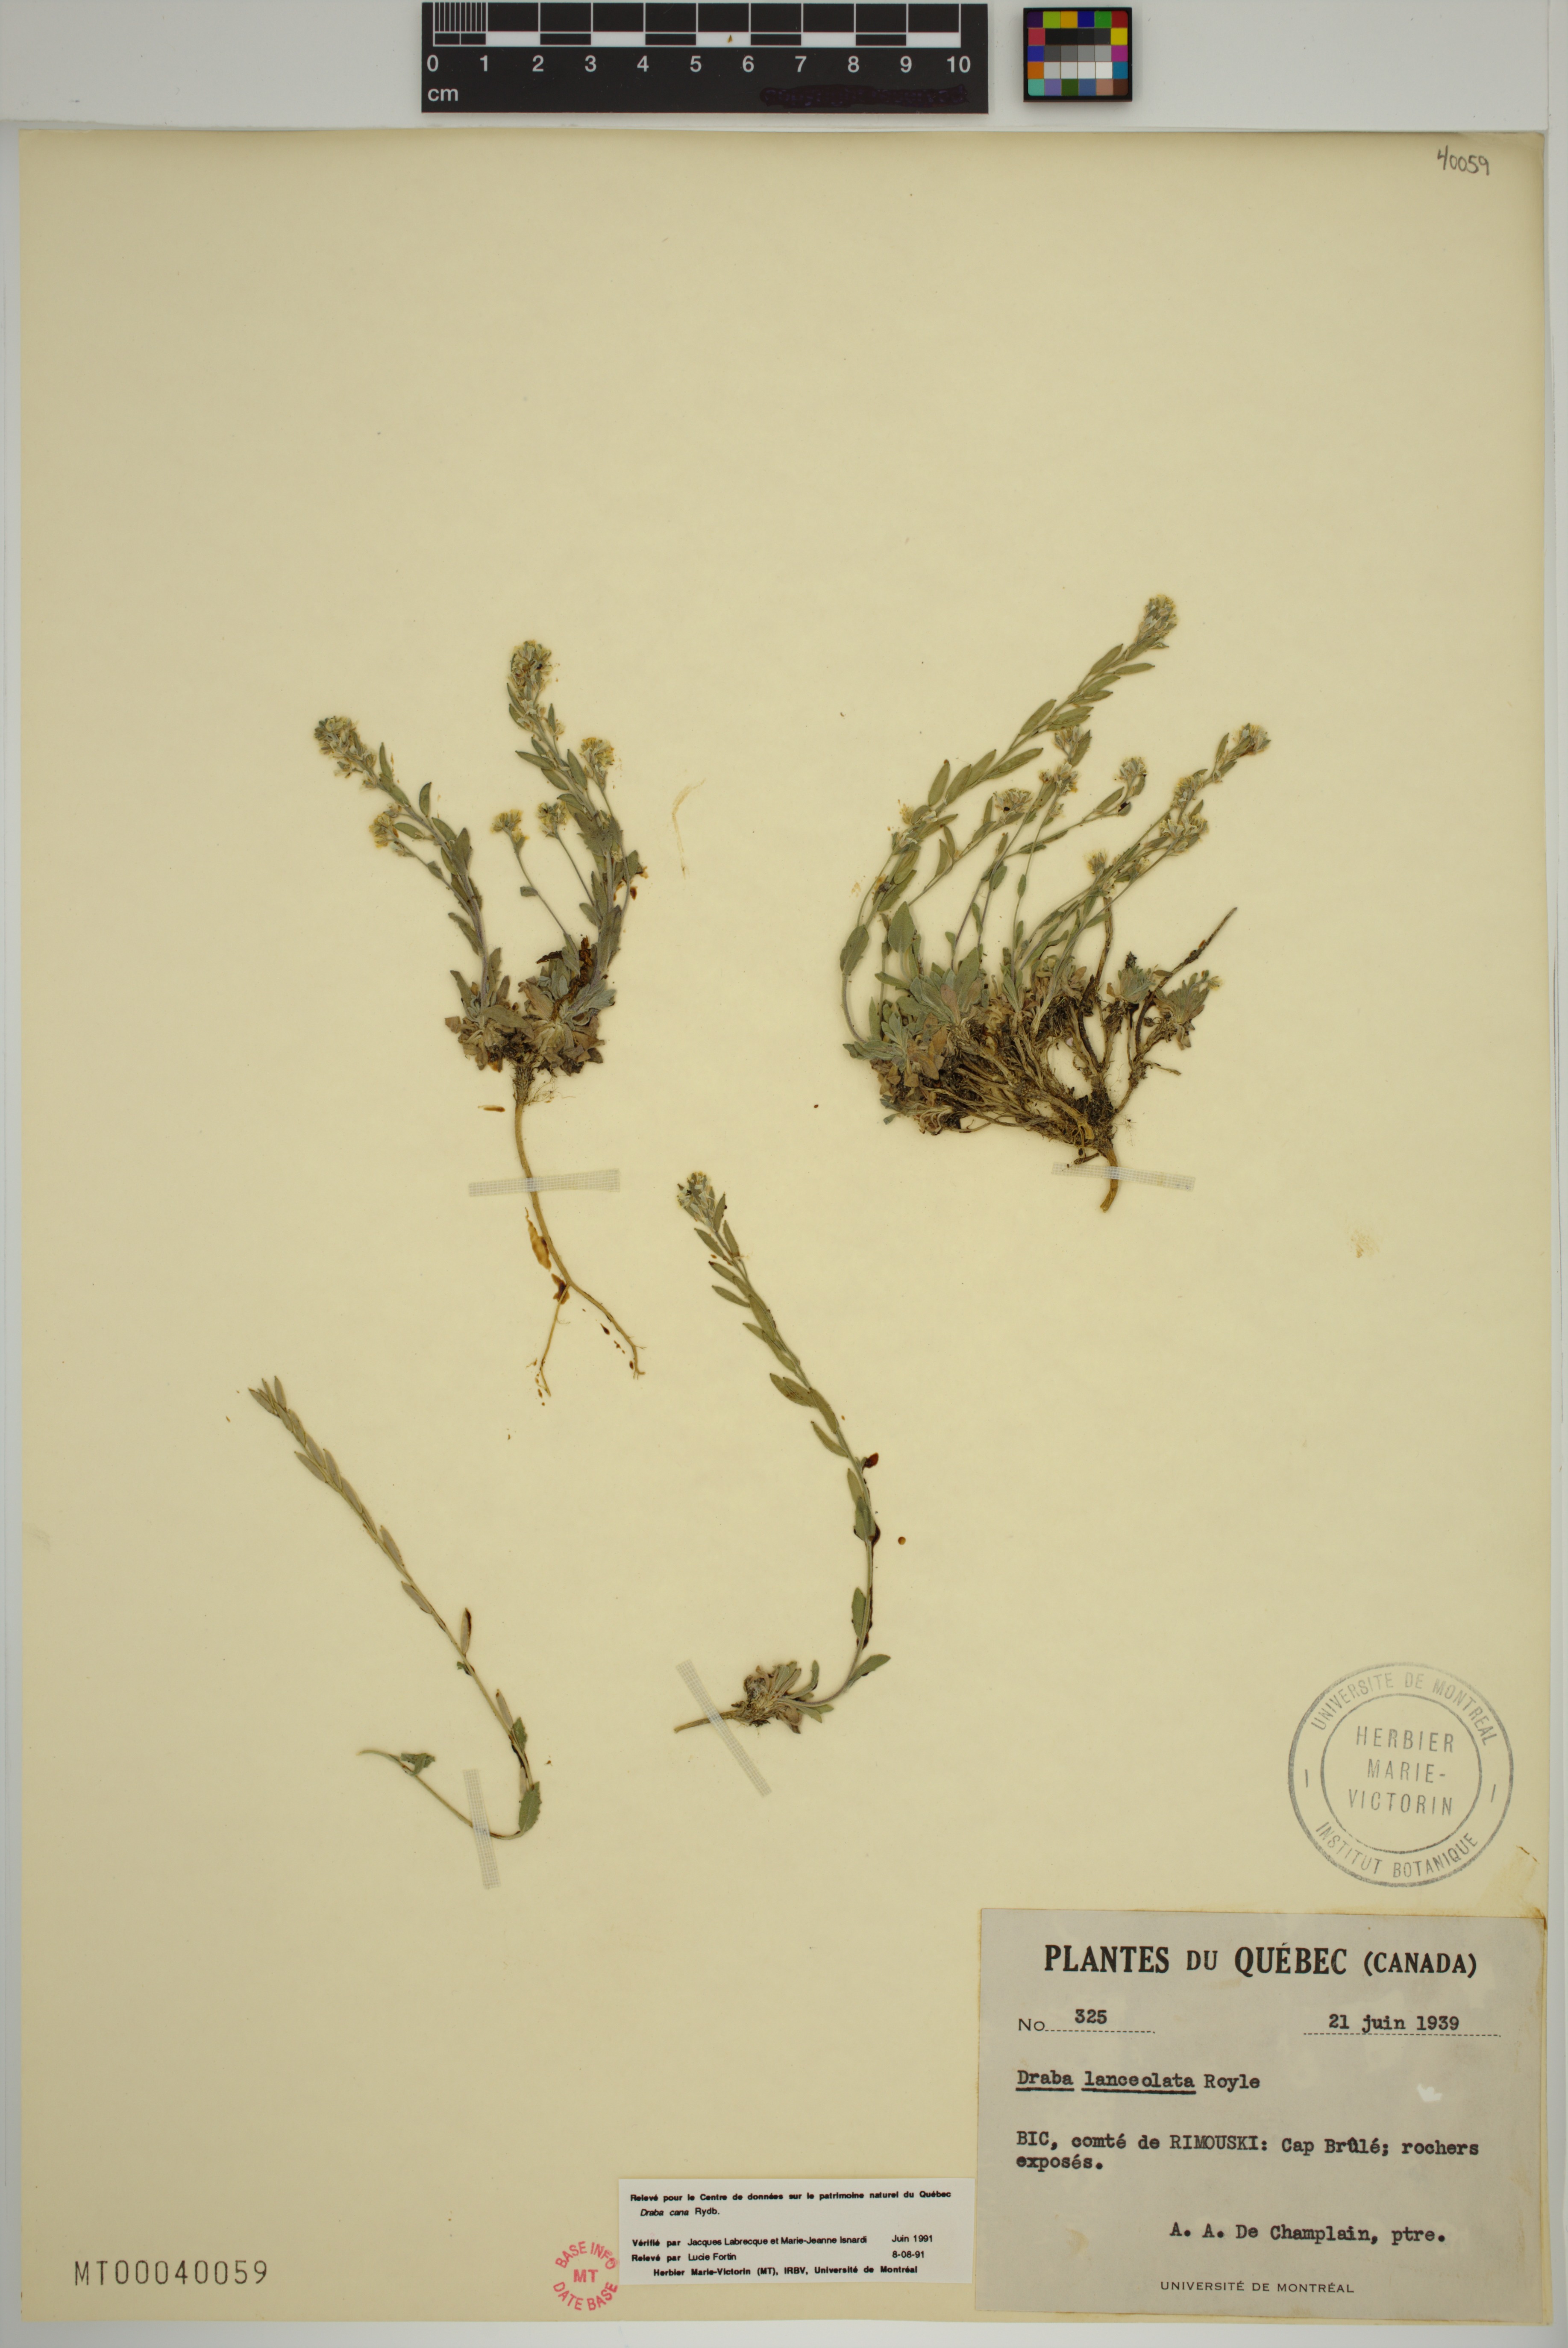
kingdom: Plantae
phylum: Tracheophyta
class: Magnoliopsida
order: Brassicales
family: Brassicaceae
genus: Draba
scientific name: Draba cana
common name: Hoary draba
